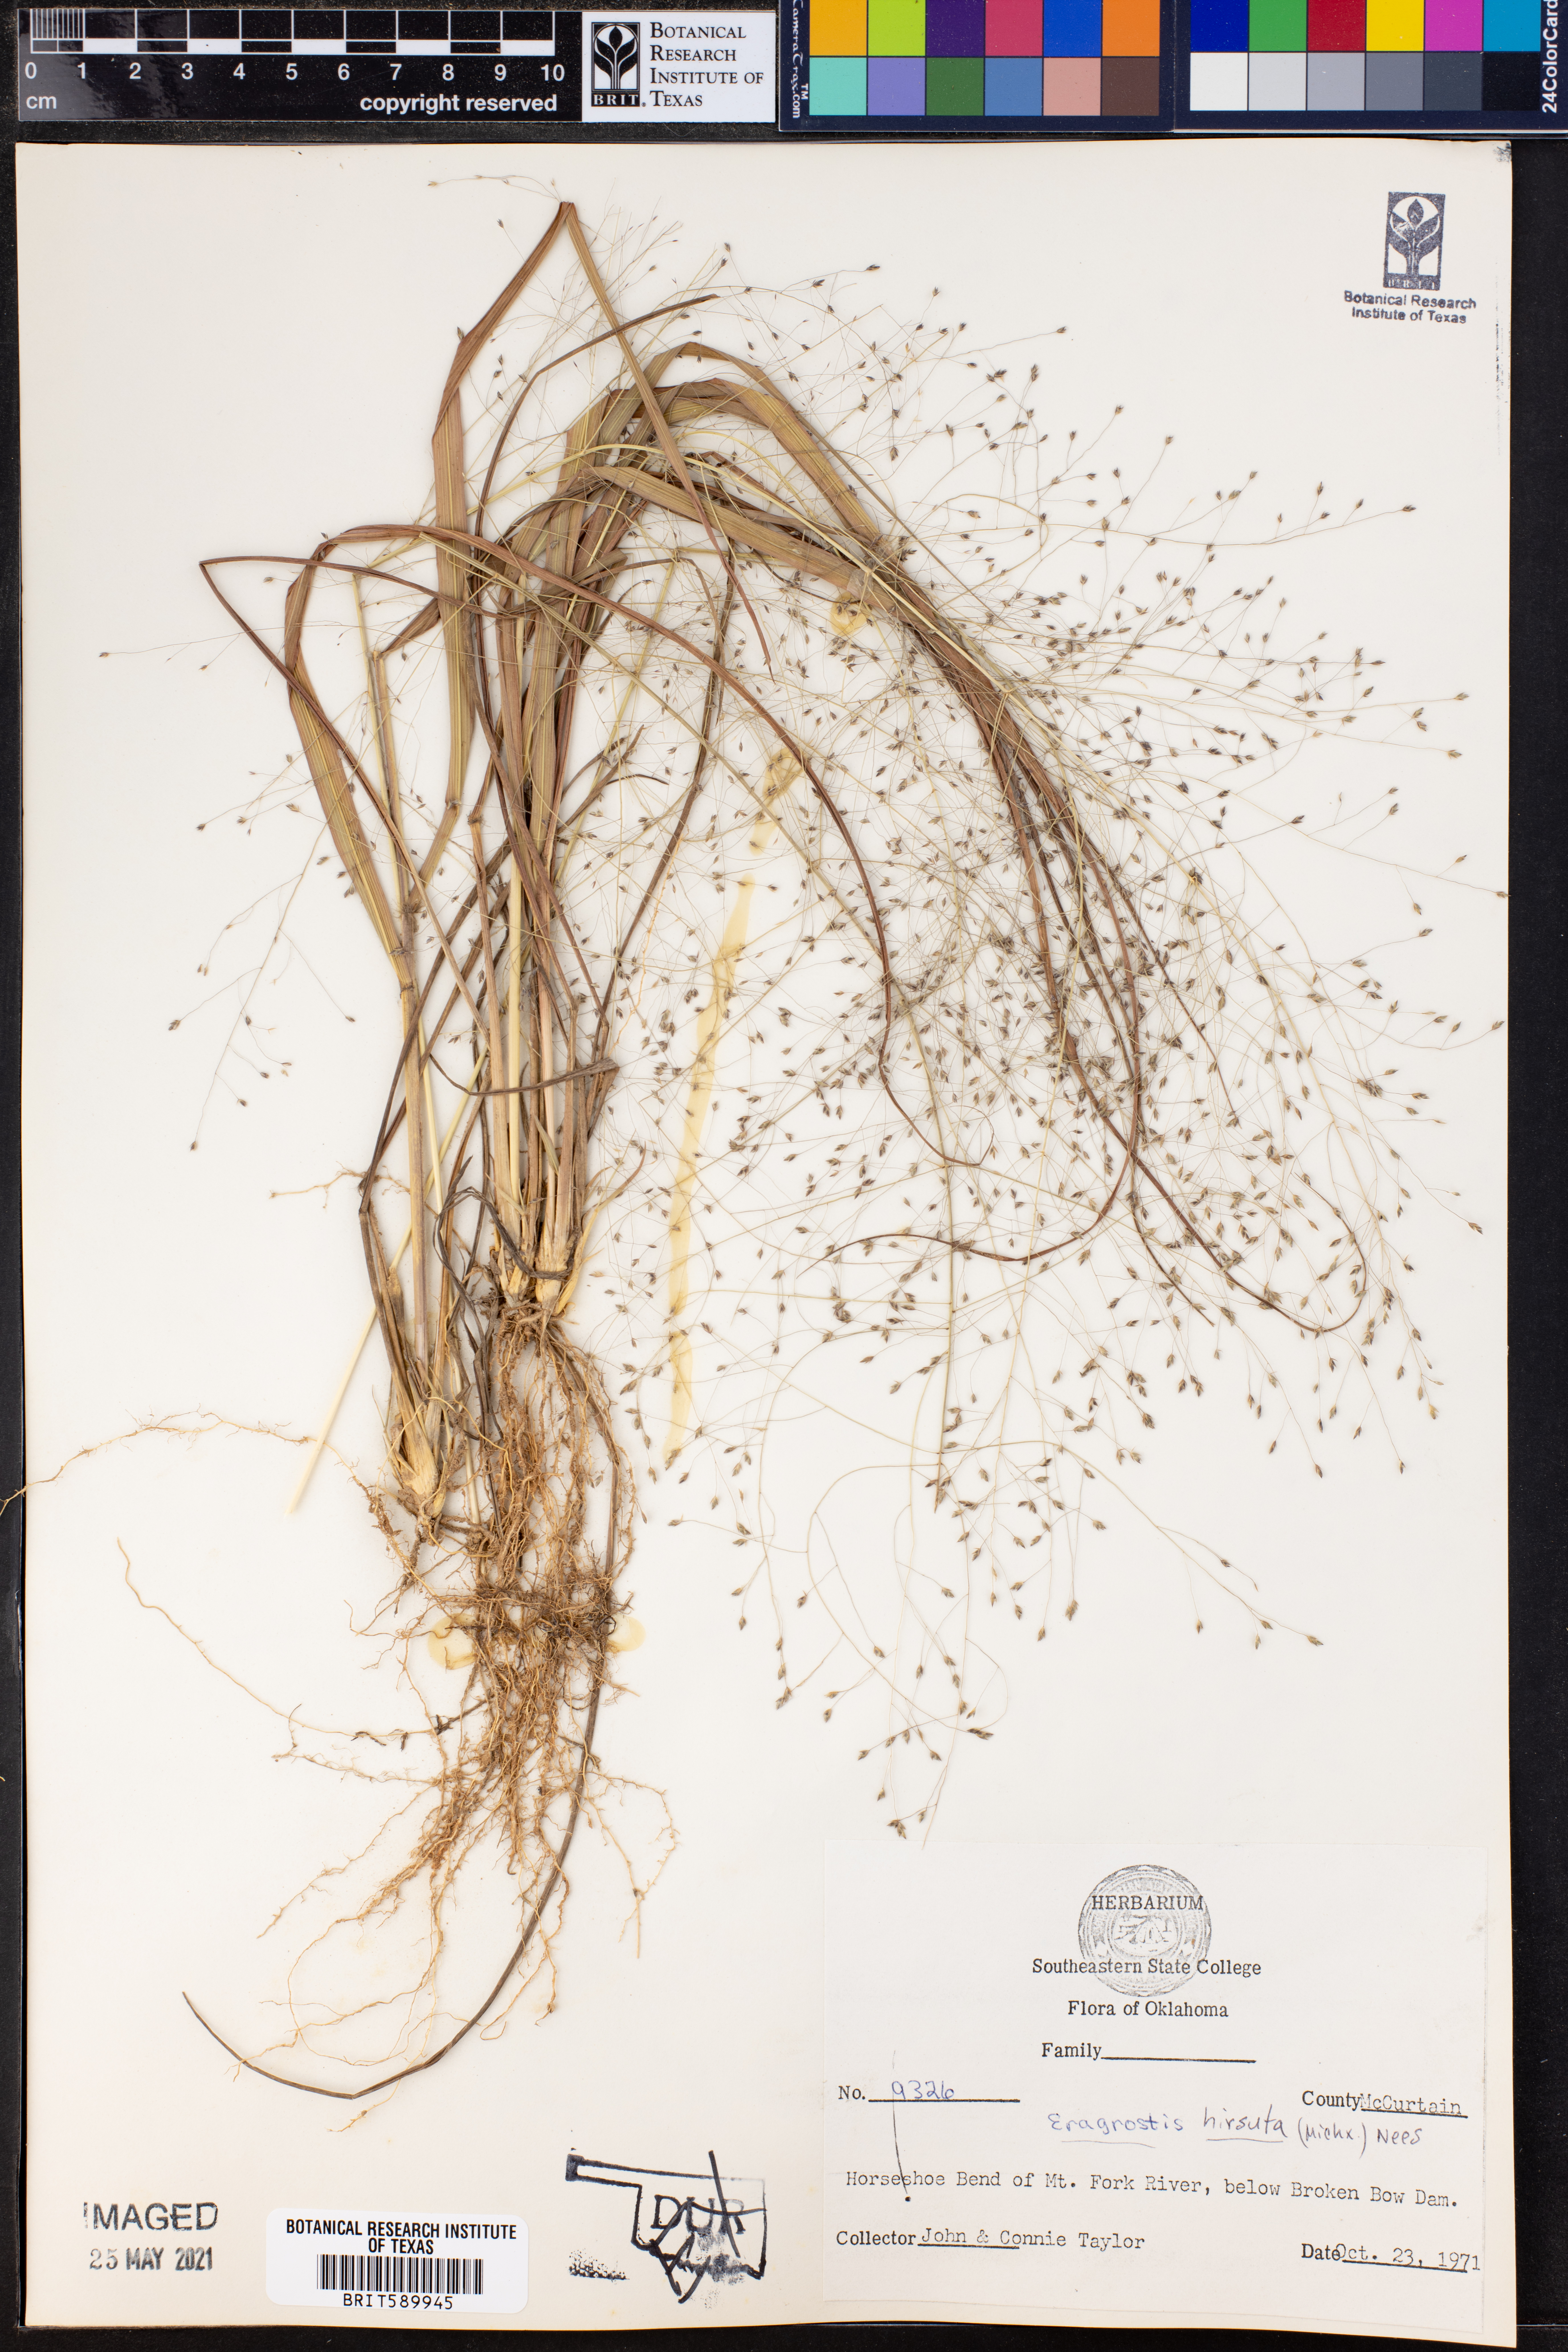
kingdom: Plantae
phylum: Tracheophyta
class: Liliopsida
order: Poales
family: Poaceae
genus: Eragrostis
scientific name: Eragrostis hirsuta
